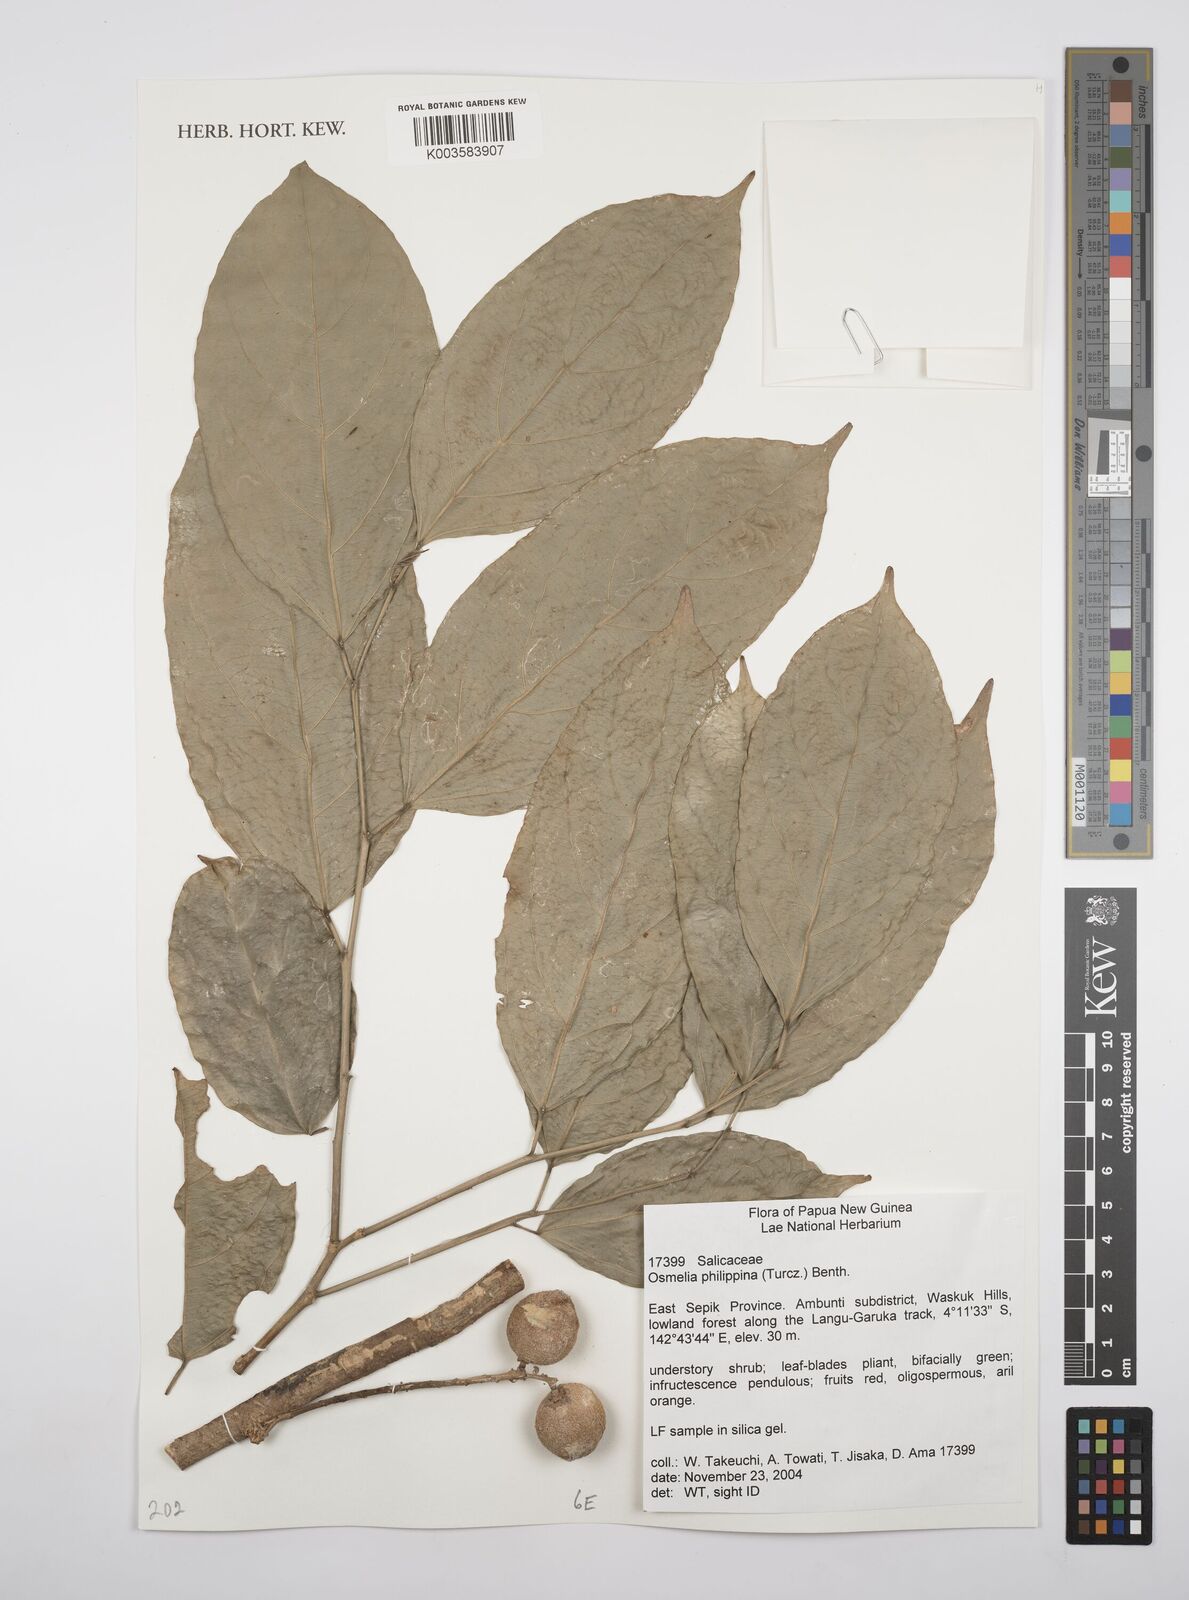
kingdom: Plantae
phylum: Tracheophyta
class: Magnoliopsida
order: Malpighiales
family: Salicaceae
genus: Osmelia
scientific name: Osmelia philippina
